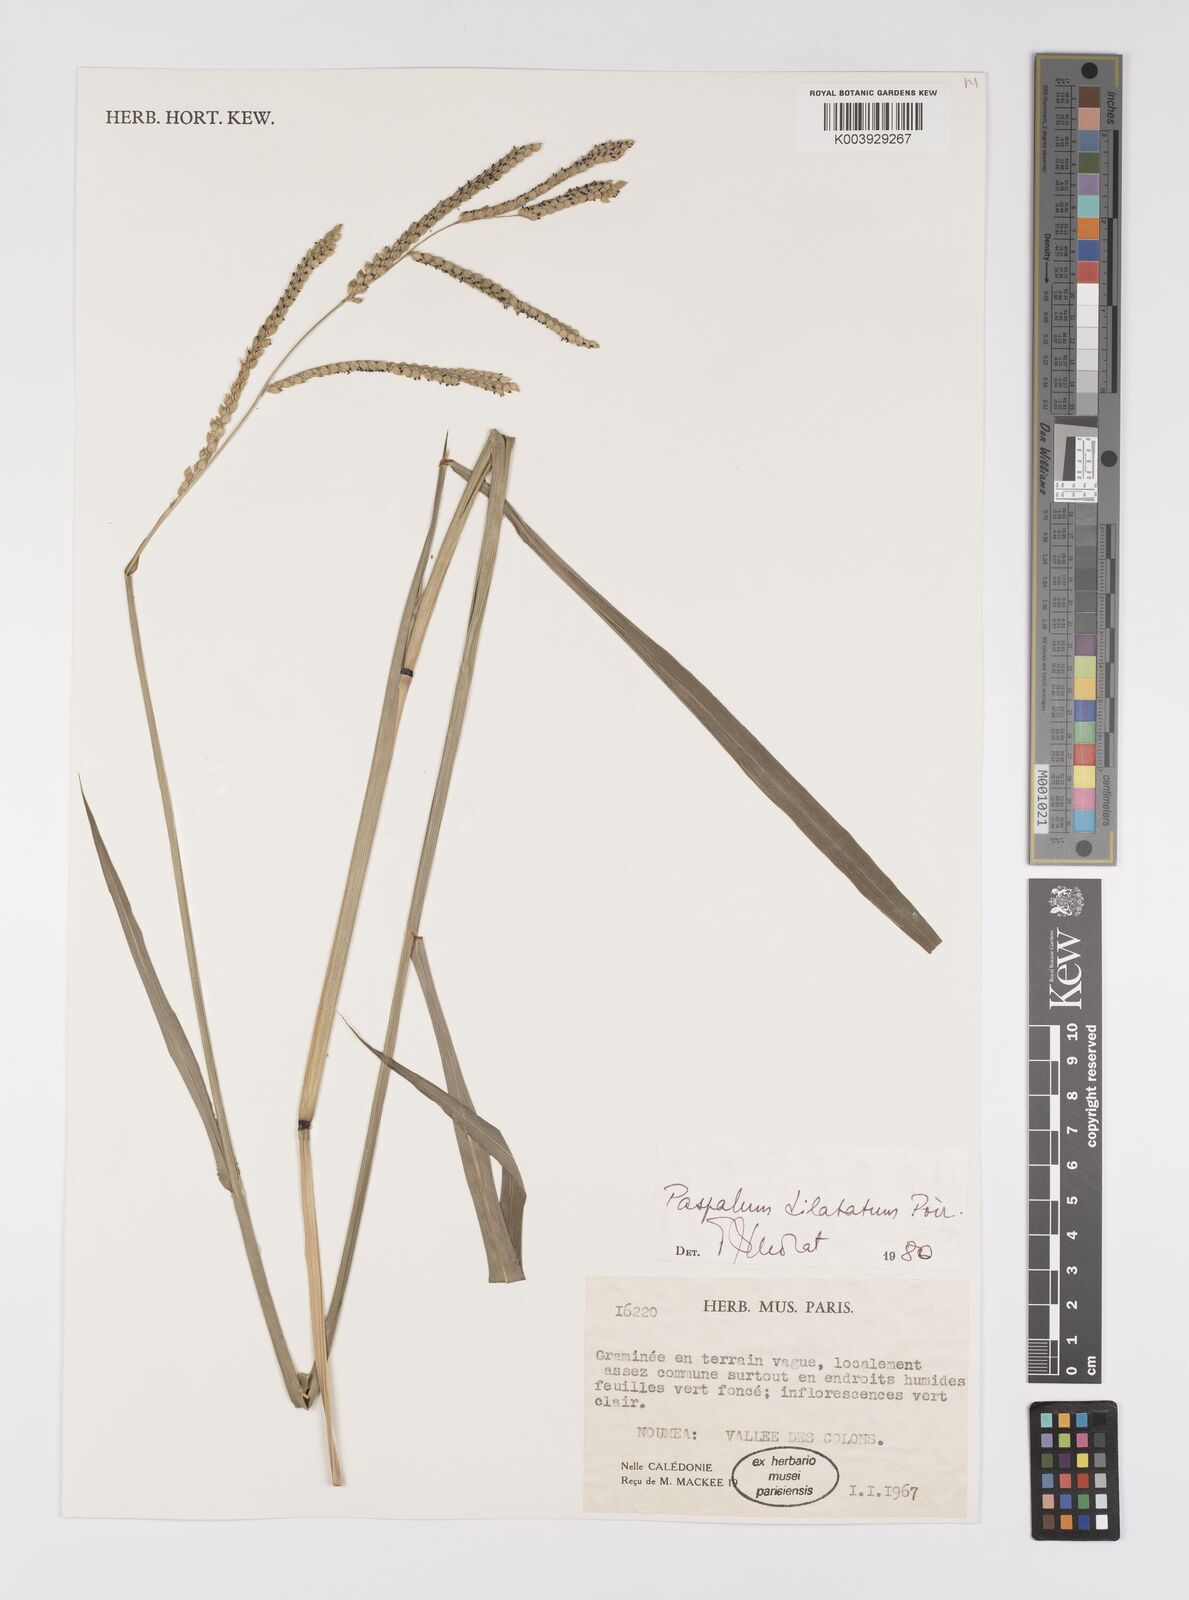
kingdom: Plantae
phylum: Tracheophyta
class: Liliopsida
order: Poales
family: Poaceae
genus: Paspalum
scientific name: Paspalum dilatatum
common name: Dallisgrass
